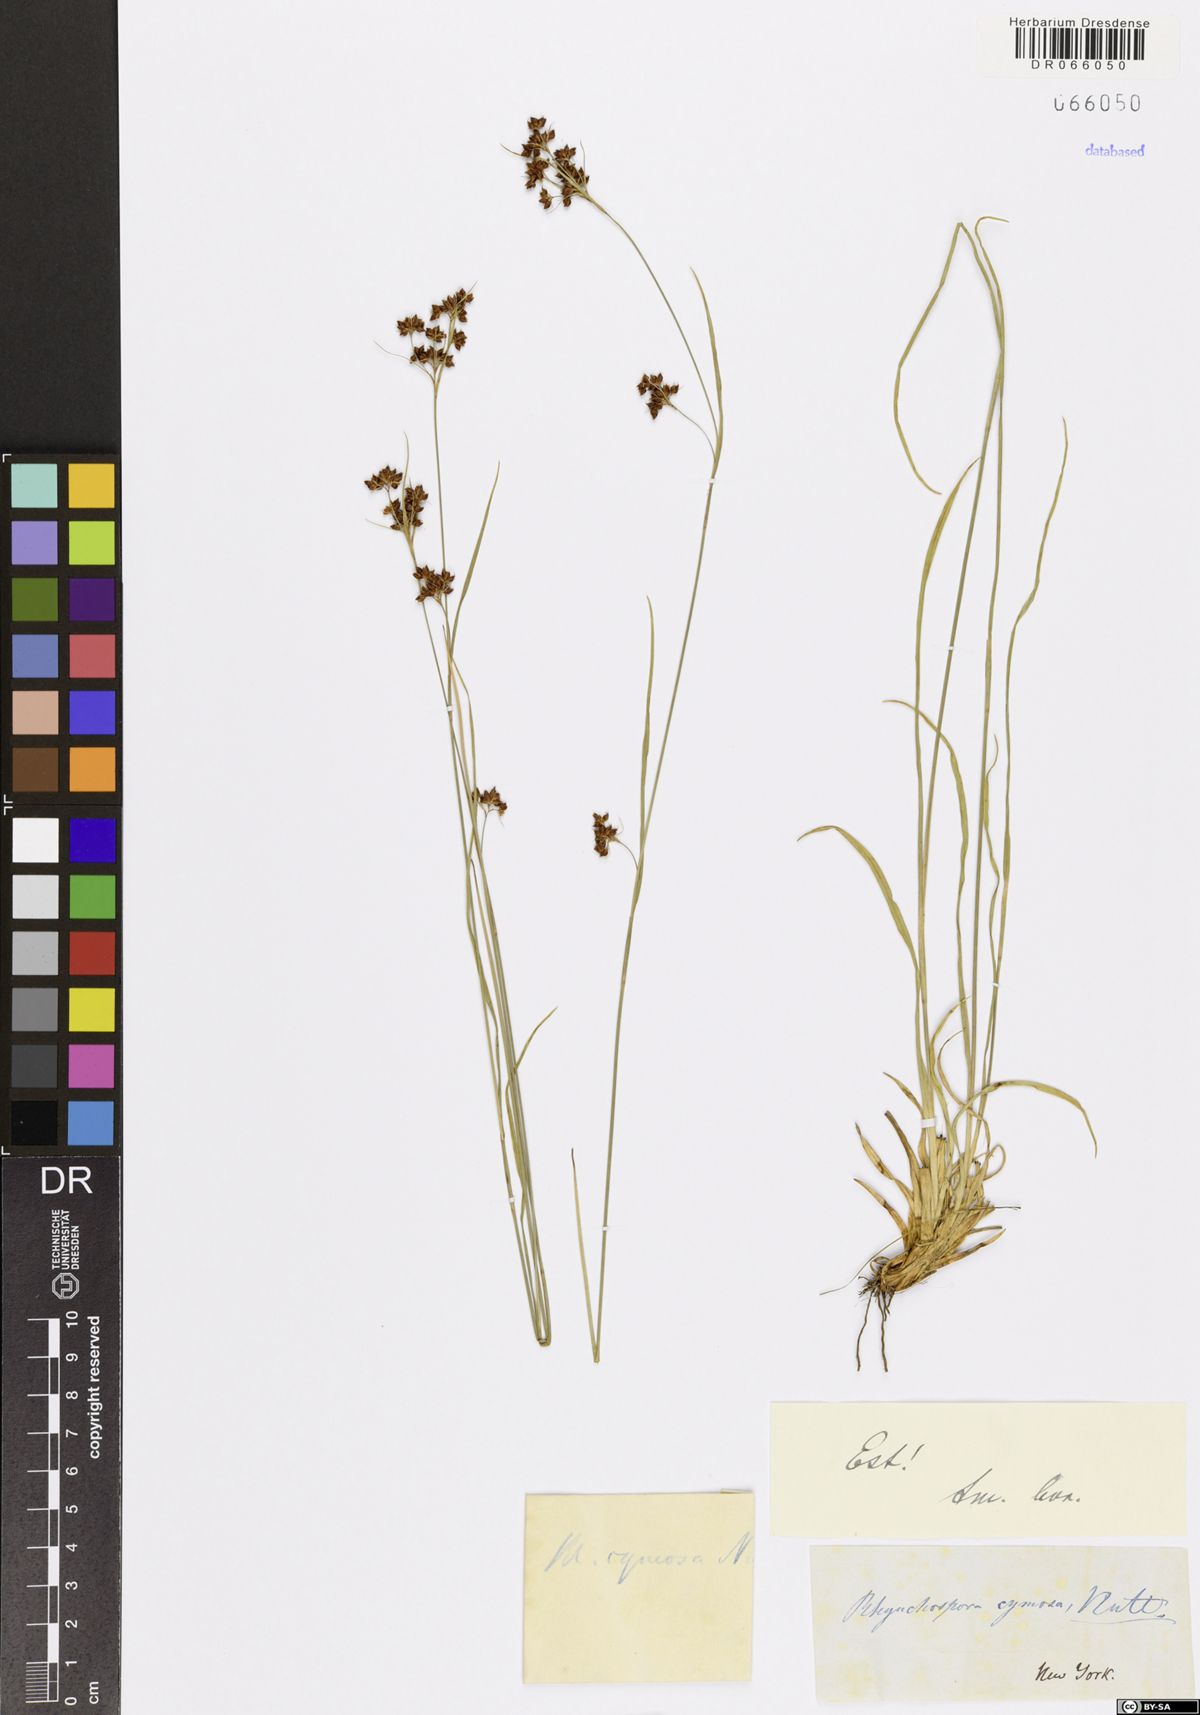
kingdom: Plantae
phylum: Tracheophyta
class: Liliopsida
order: Poales
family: Cyperaceae
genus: Rhynchospora
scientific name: Rhynchospora cymosa
